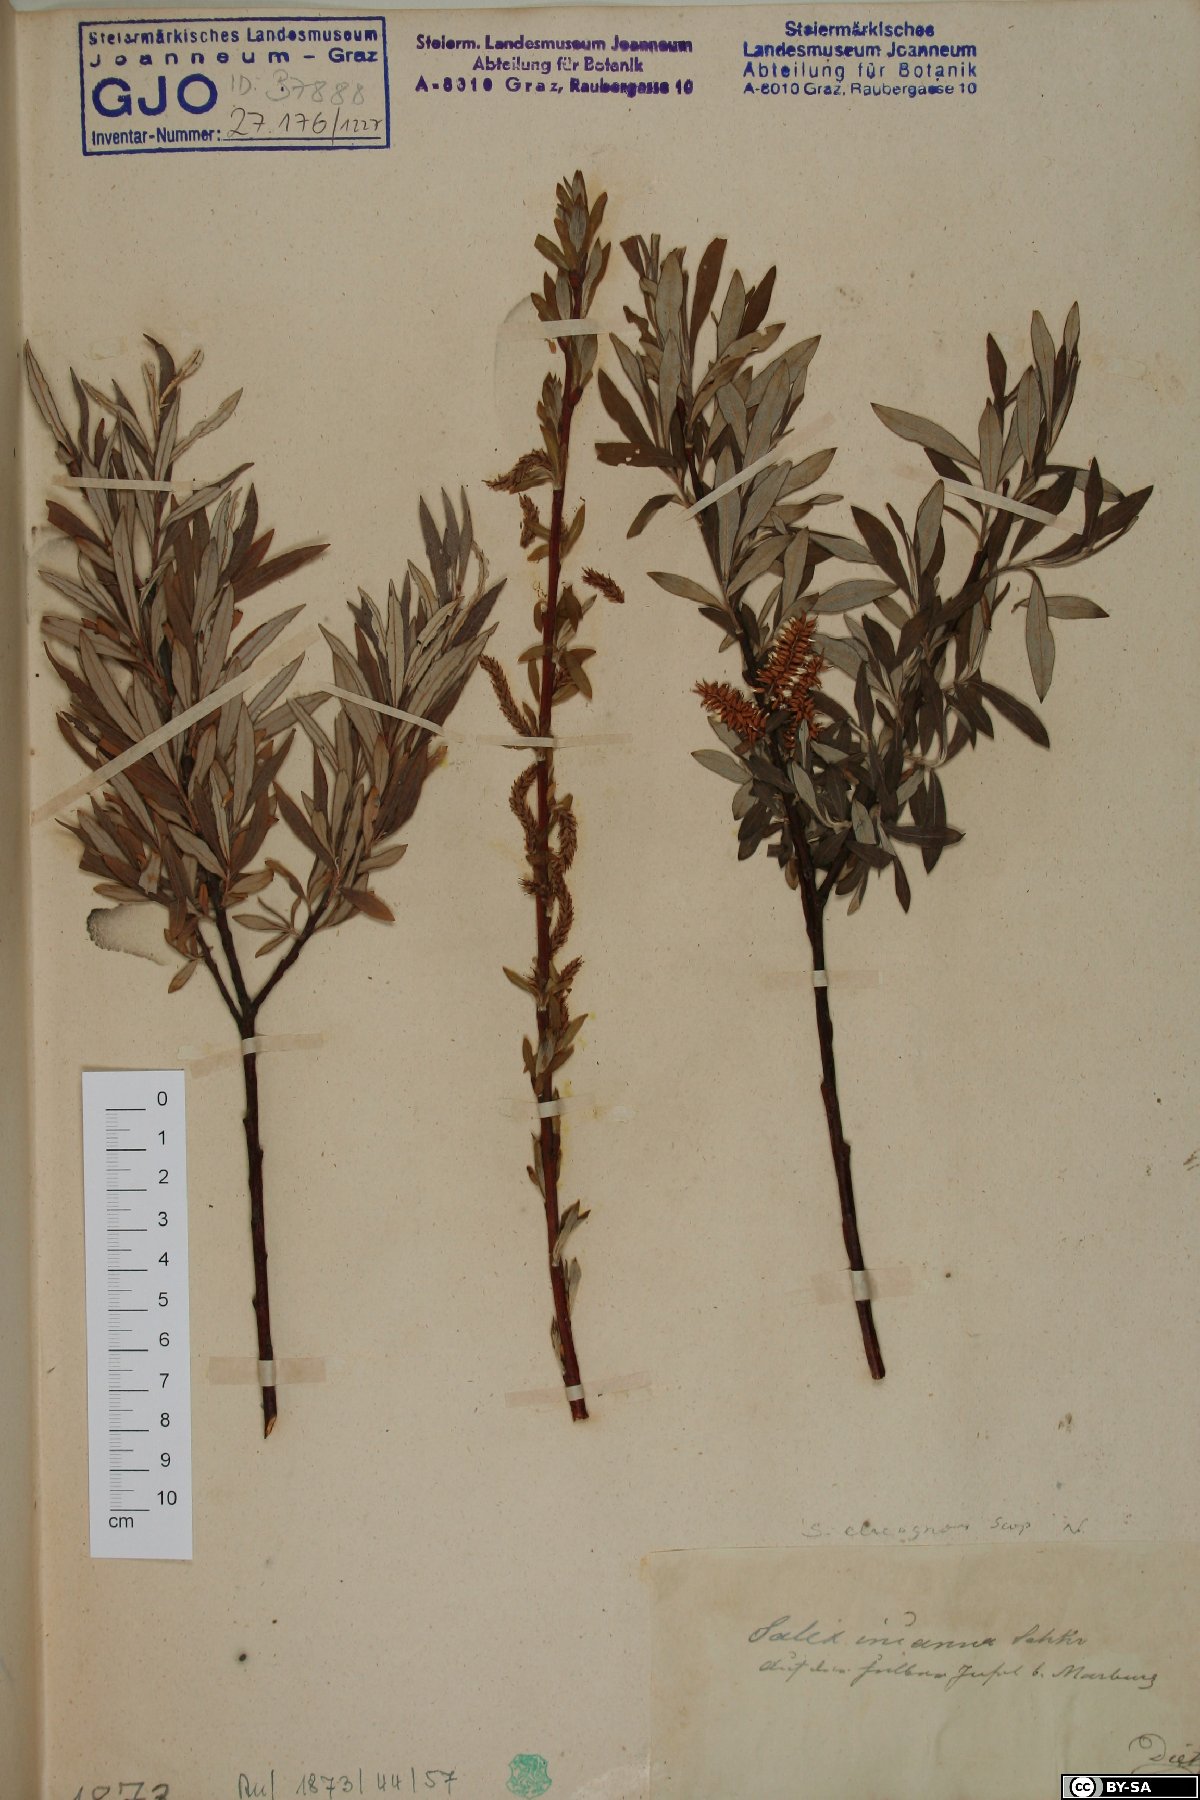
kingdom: Plantae
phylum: Tracheophyta
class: Magnoliopsida
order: Malpighiales
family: Salicaceae
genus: Salix
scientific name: Salix eleagnos
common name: Elaeagnus willow
